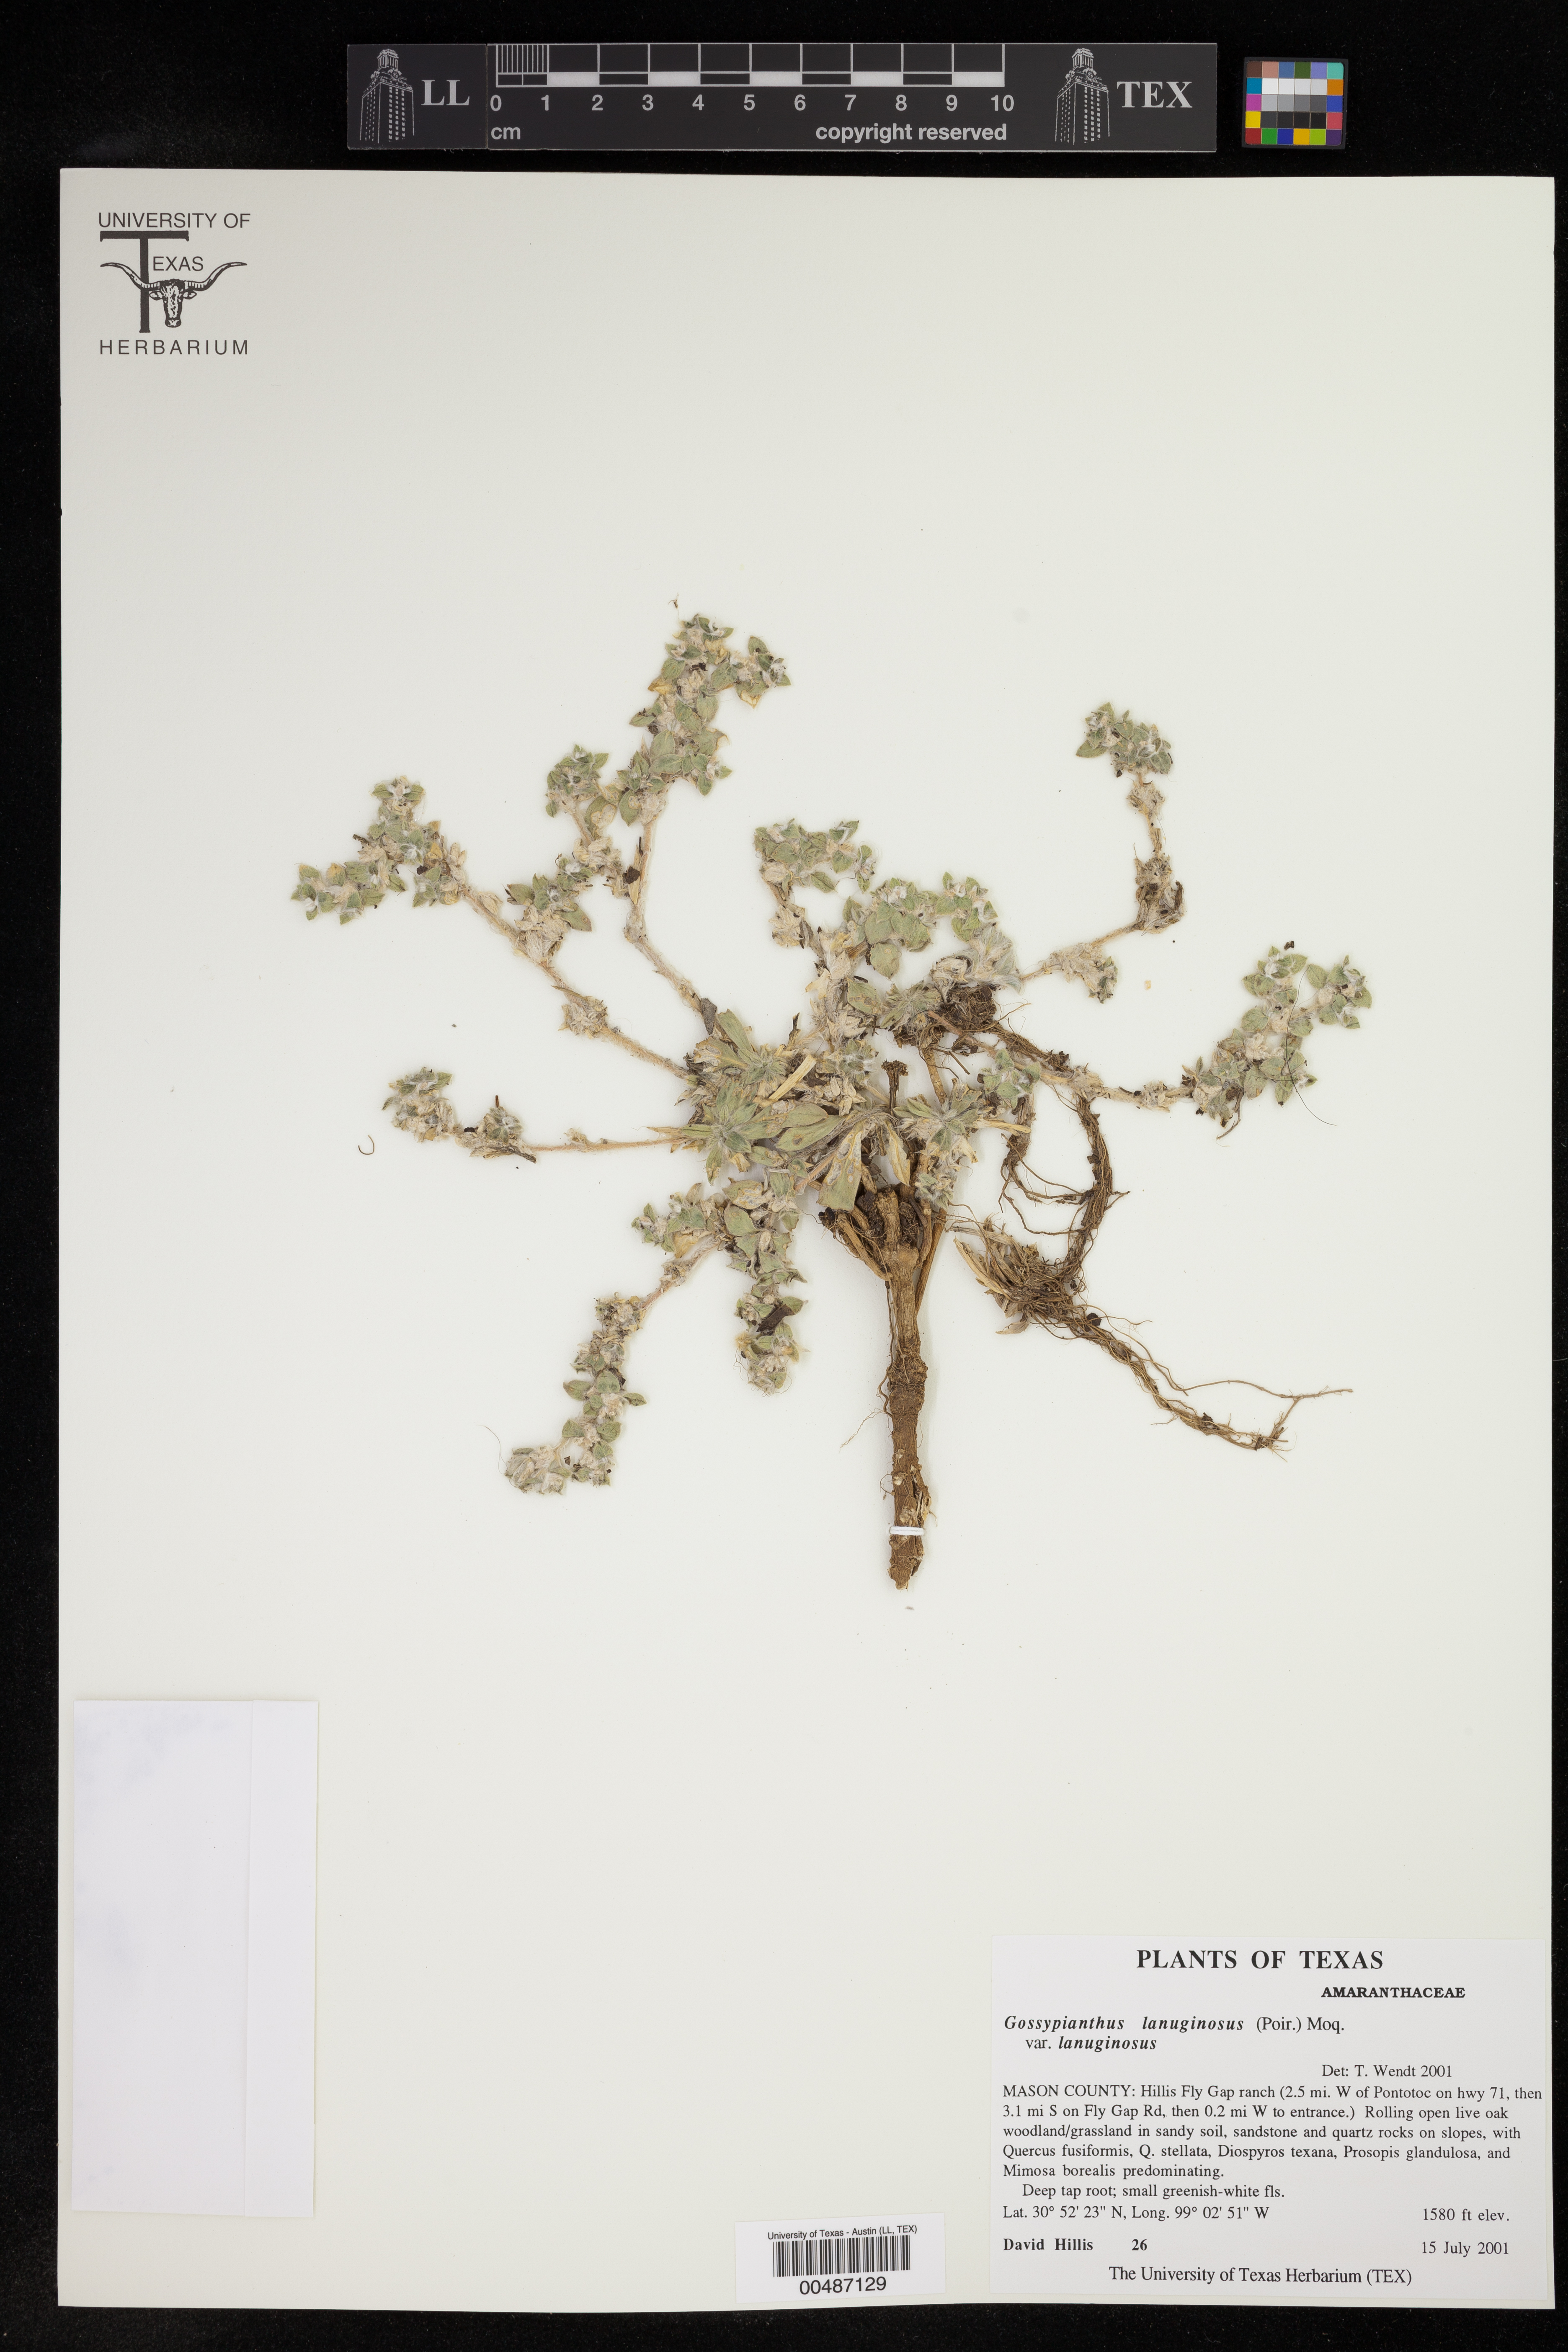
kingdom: Plantae
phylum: Tracheophyta
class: Magnoliopsida
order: Caryophyllales
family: Amaranthaceae
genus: Gomphrena
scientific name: Gomphrena lanuparonychioides
